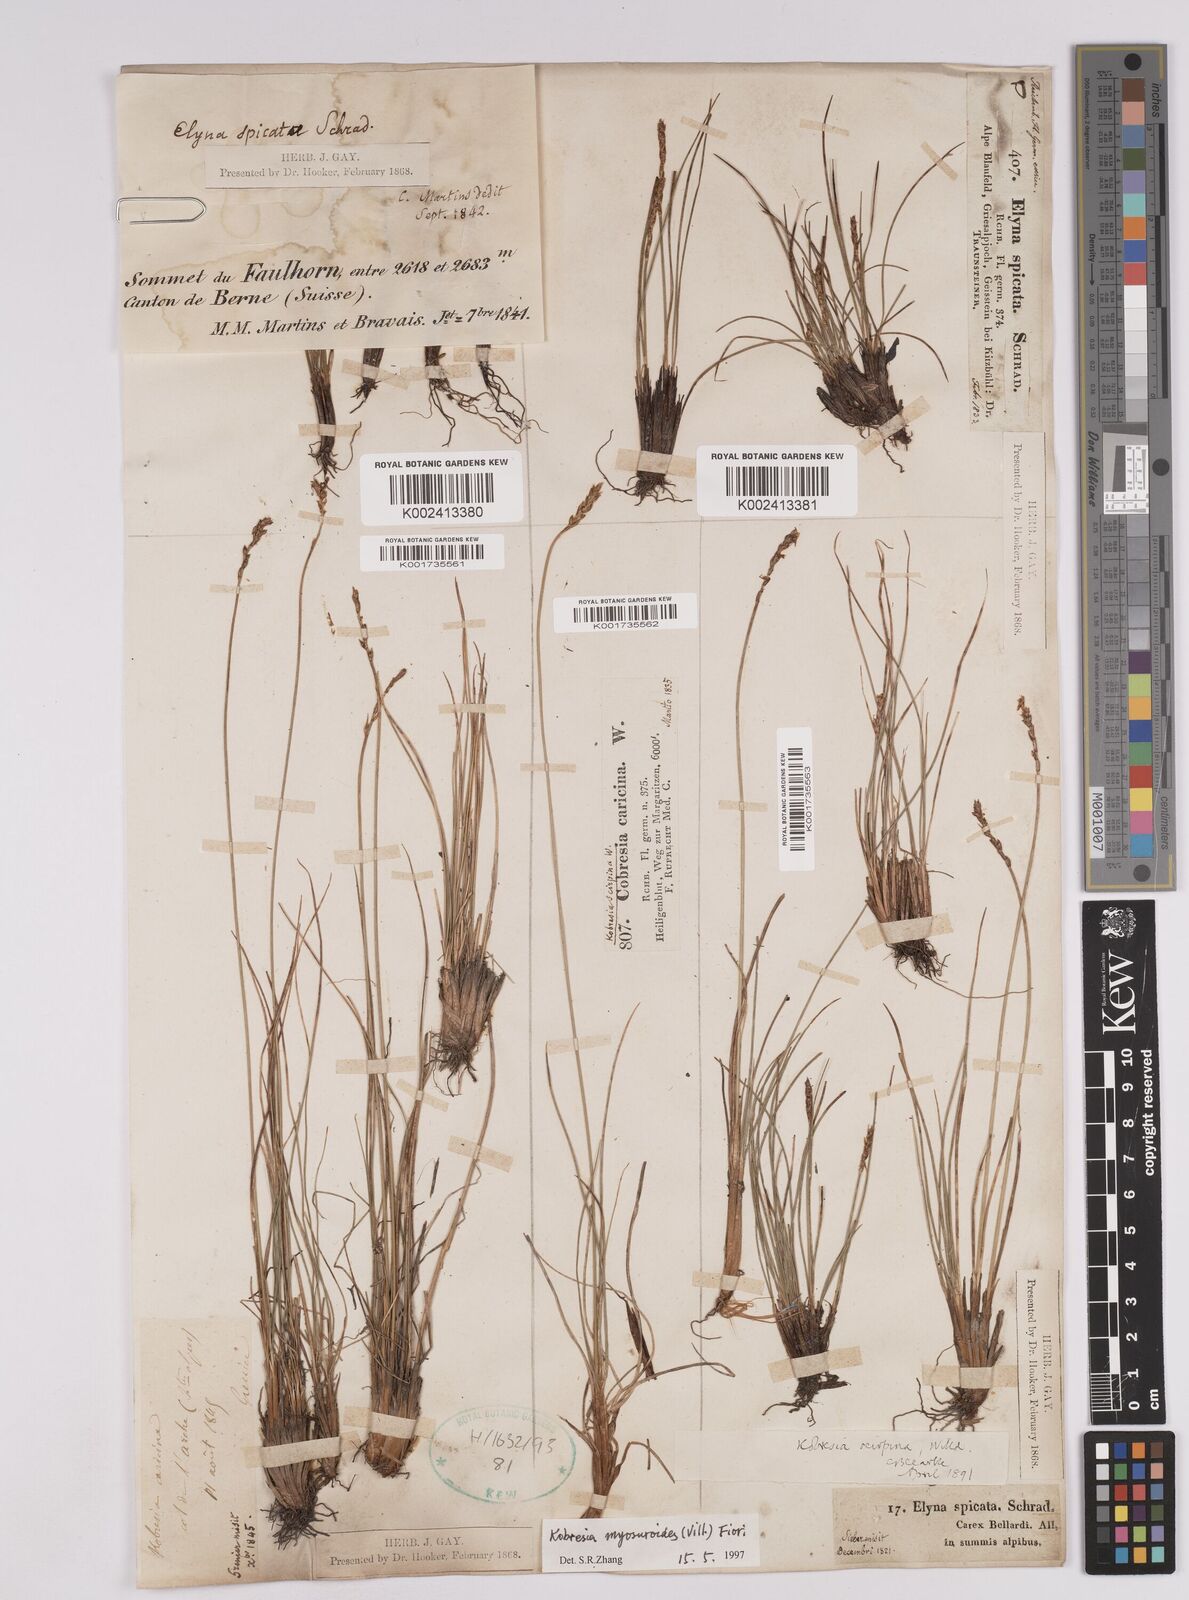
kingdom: Plantae
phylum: Tracheophyta
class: Liliopsida
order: Poales
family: Cyperaceae
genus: Carex
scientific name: Carex myosuroides
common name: Bellard's bog sedge
